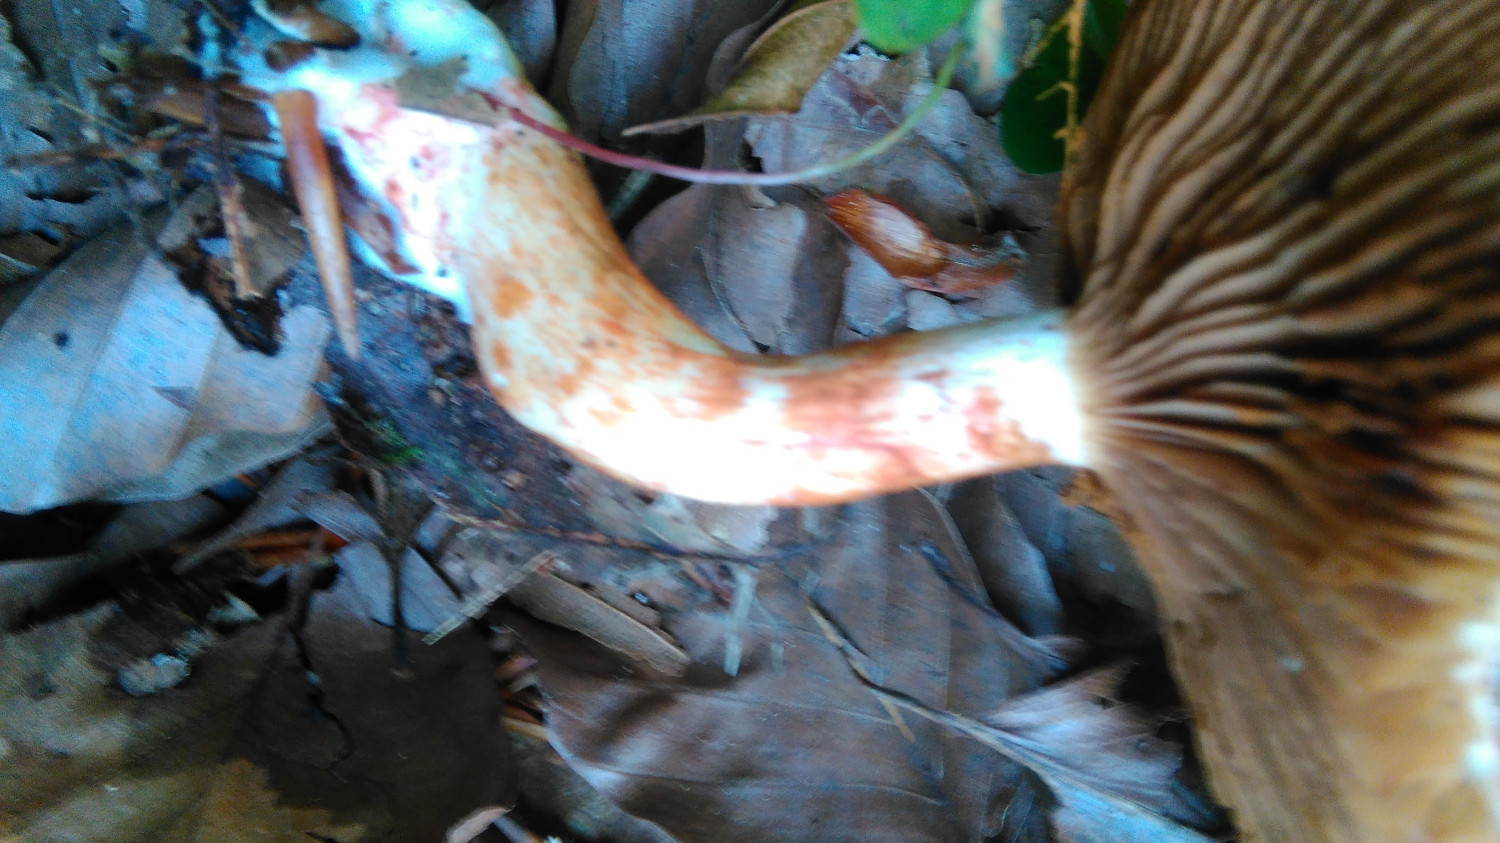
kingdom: Fungi
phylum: Basidiomycota
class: Agaricomycetes
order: Agaricales
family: Cortinariaceae
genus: Cortinarius
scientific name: Cortinarius bolaris
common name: cinnoberskællet slørhat
